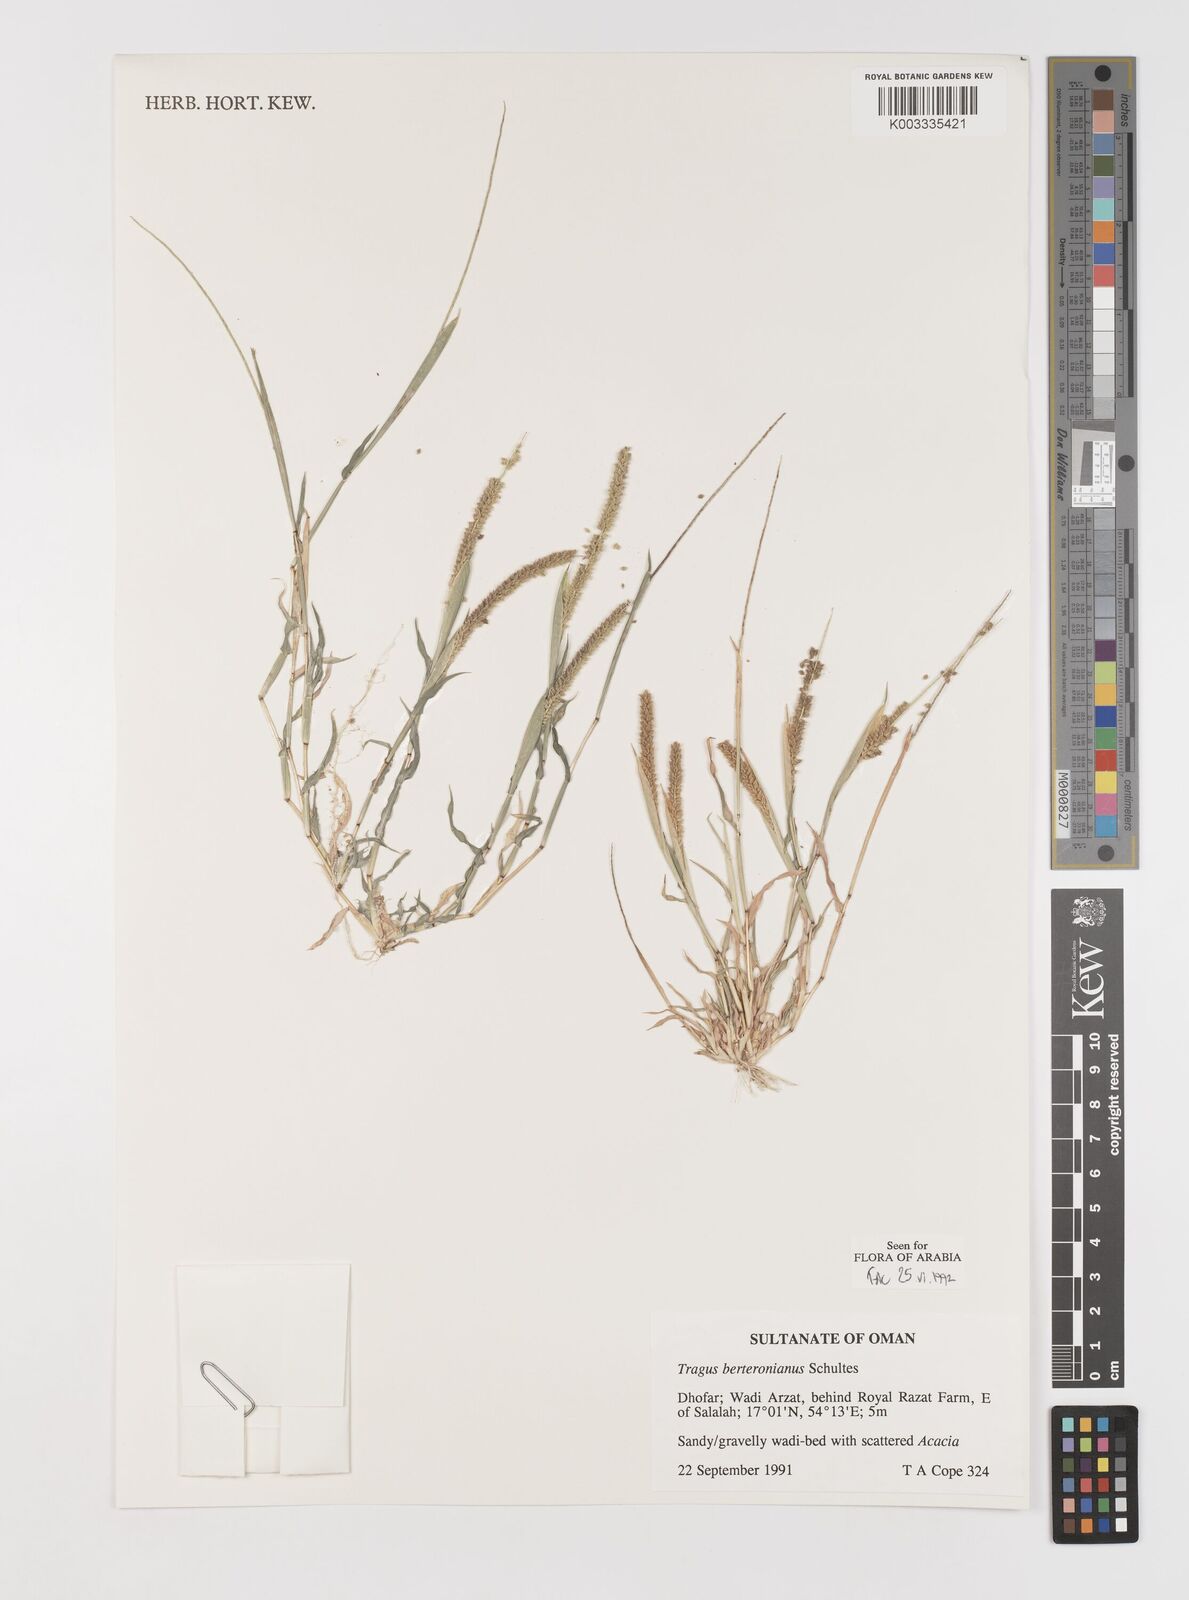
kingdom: Plantae
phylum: Tracheophyta
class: Liliopsida
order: Poales
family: Poaceae
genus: Tragus
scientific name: Tragus berteronianus
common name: African bur-grass
